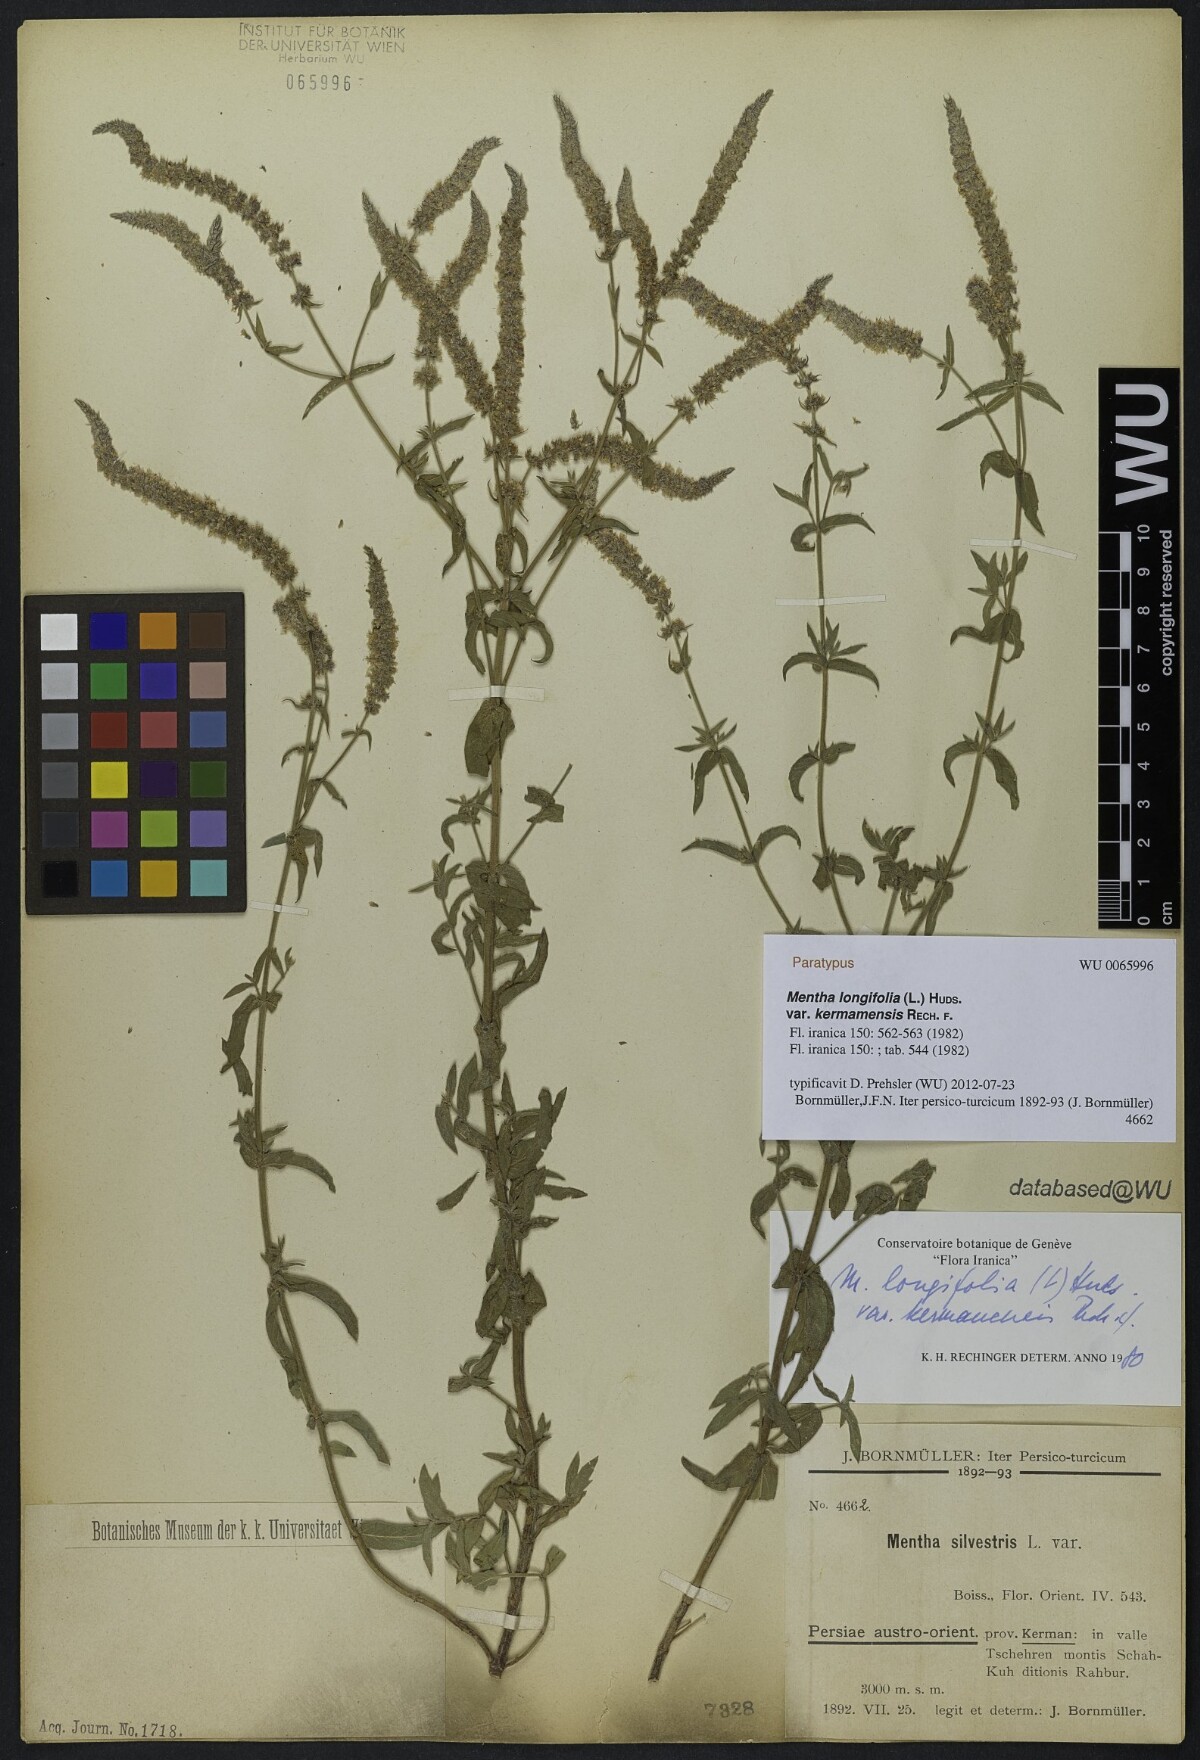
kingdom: Plantae
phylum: Tracheophyta
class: Magnoliopsida
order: Lamiales
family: Lamiaceae
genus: Mentha
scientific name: Mentha longifolia
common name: Horse mint
